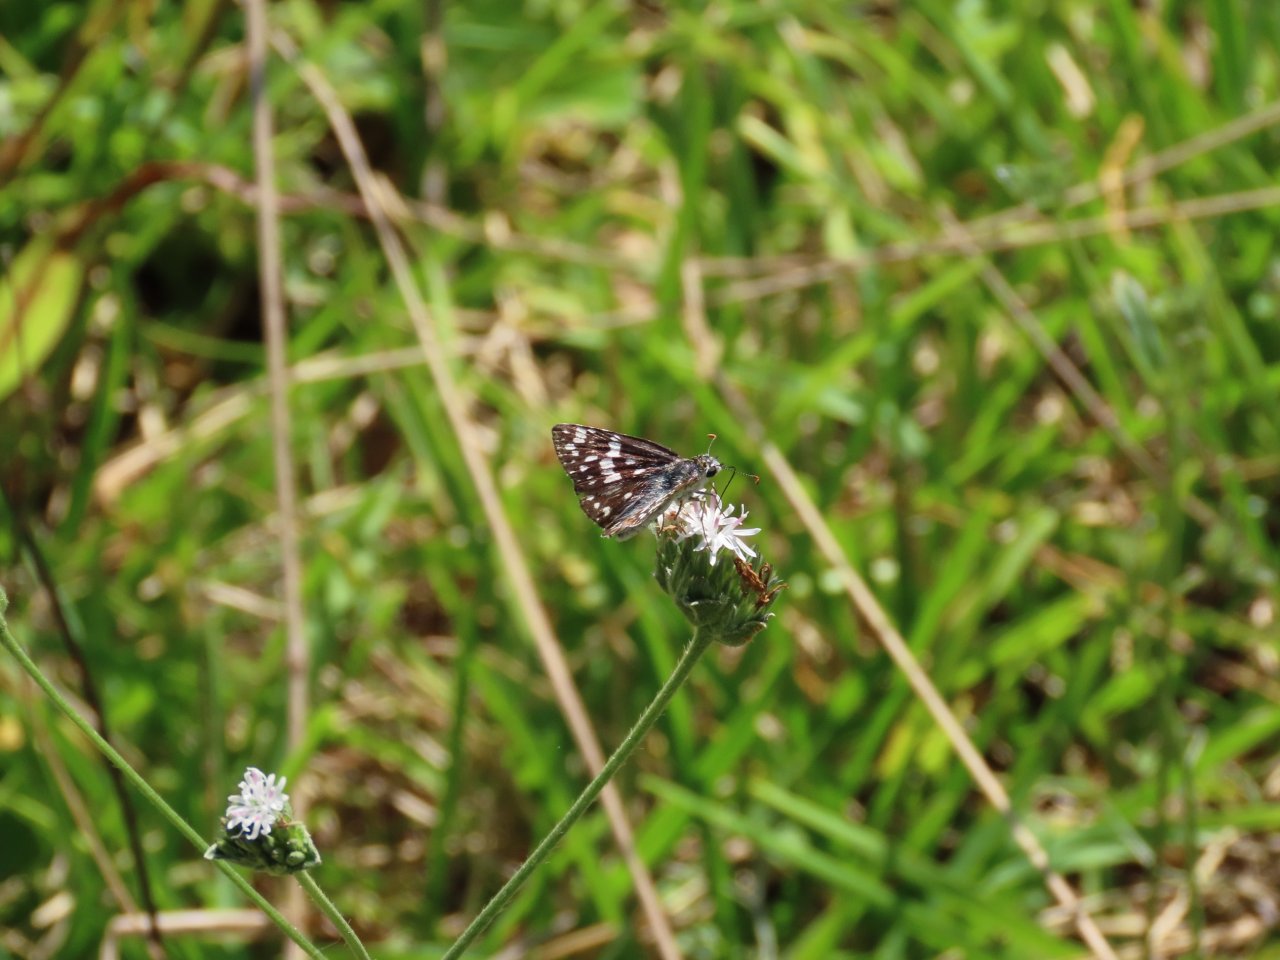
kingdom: Animalia
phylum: Arthropoda
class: Insecta
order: Lepidoptera
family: Hesperiidae
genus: Pyrgus
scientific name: Pyrgus communis
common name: White Checkered-Skipper
